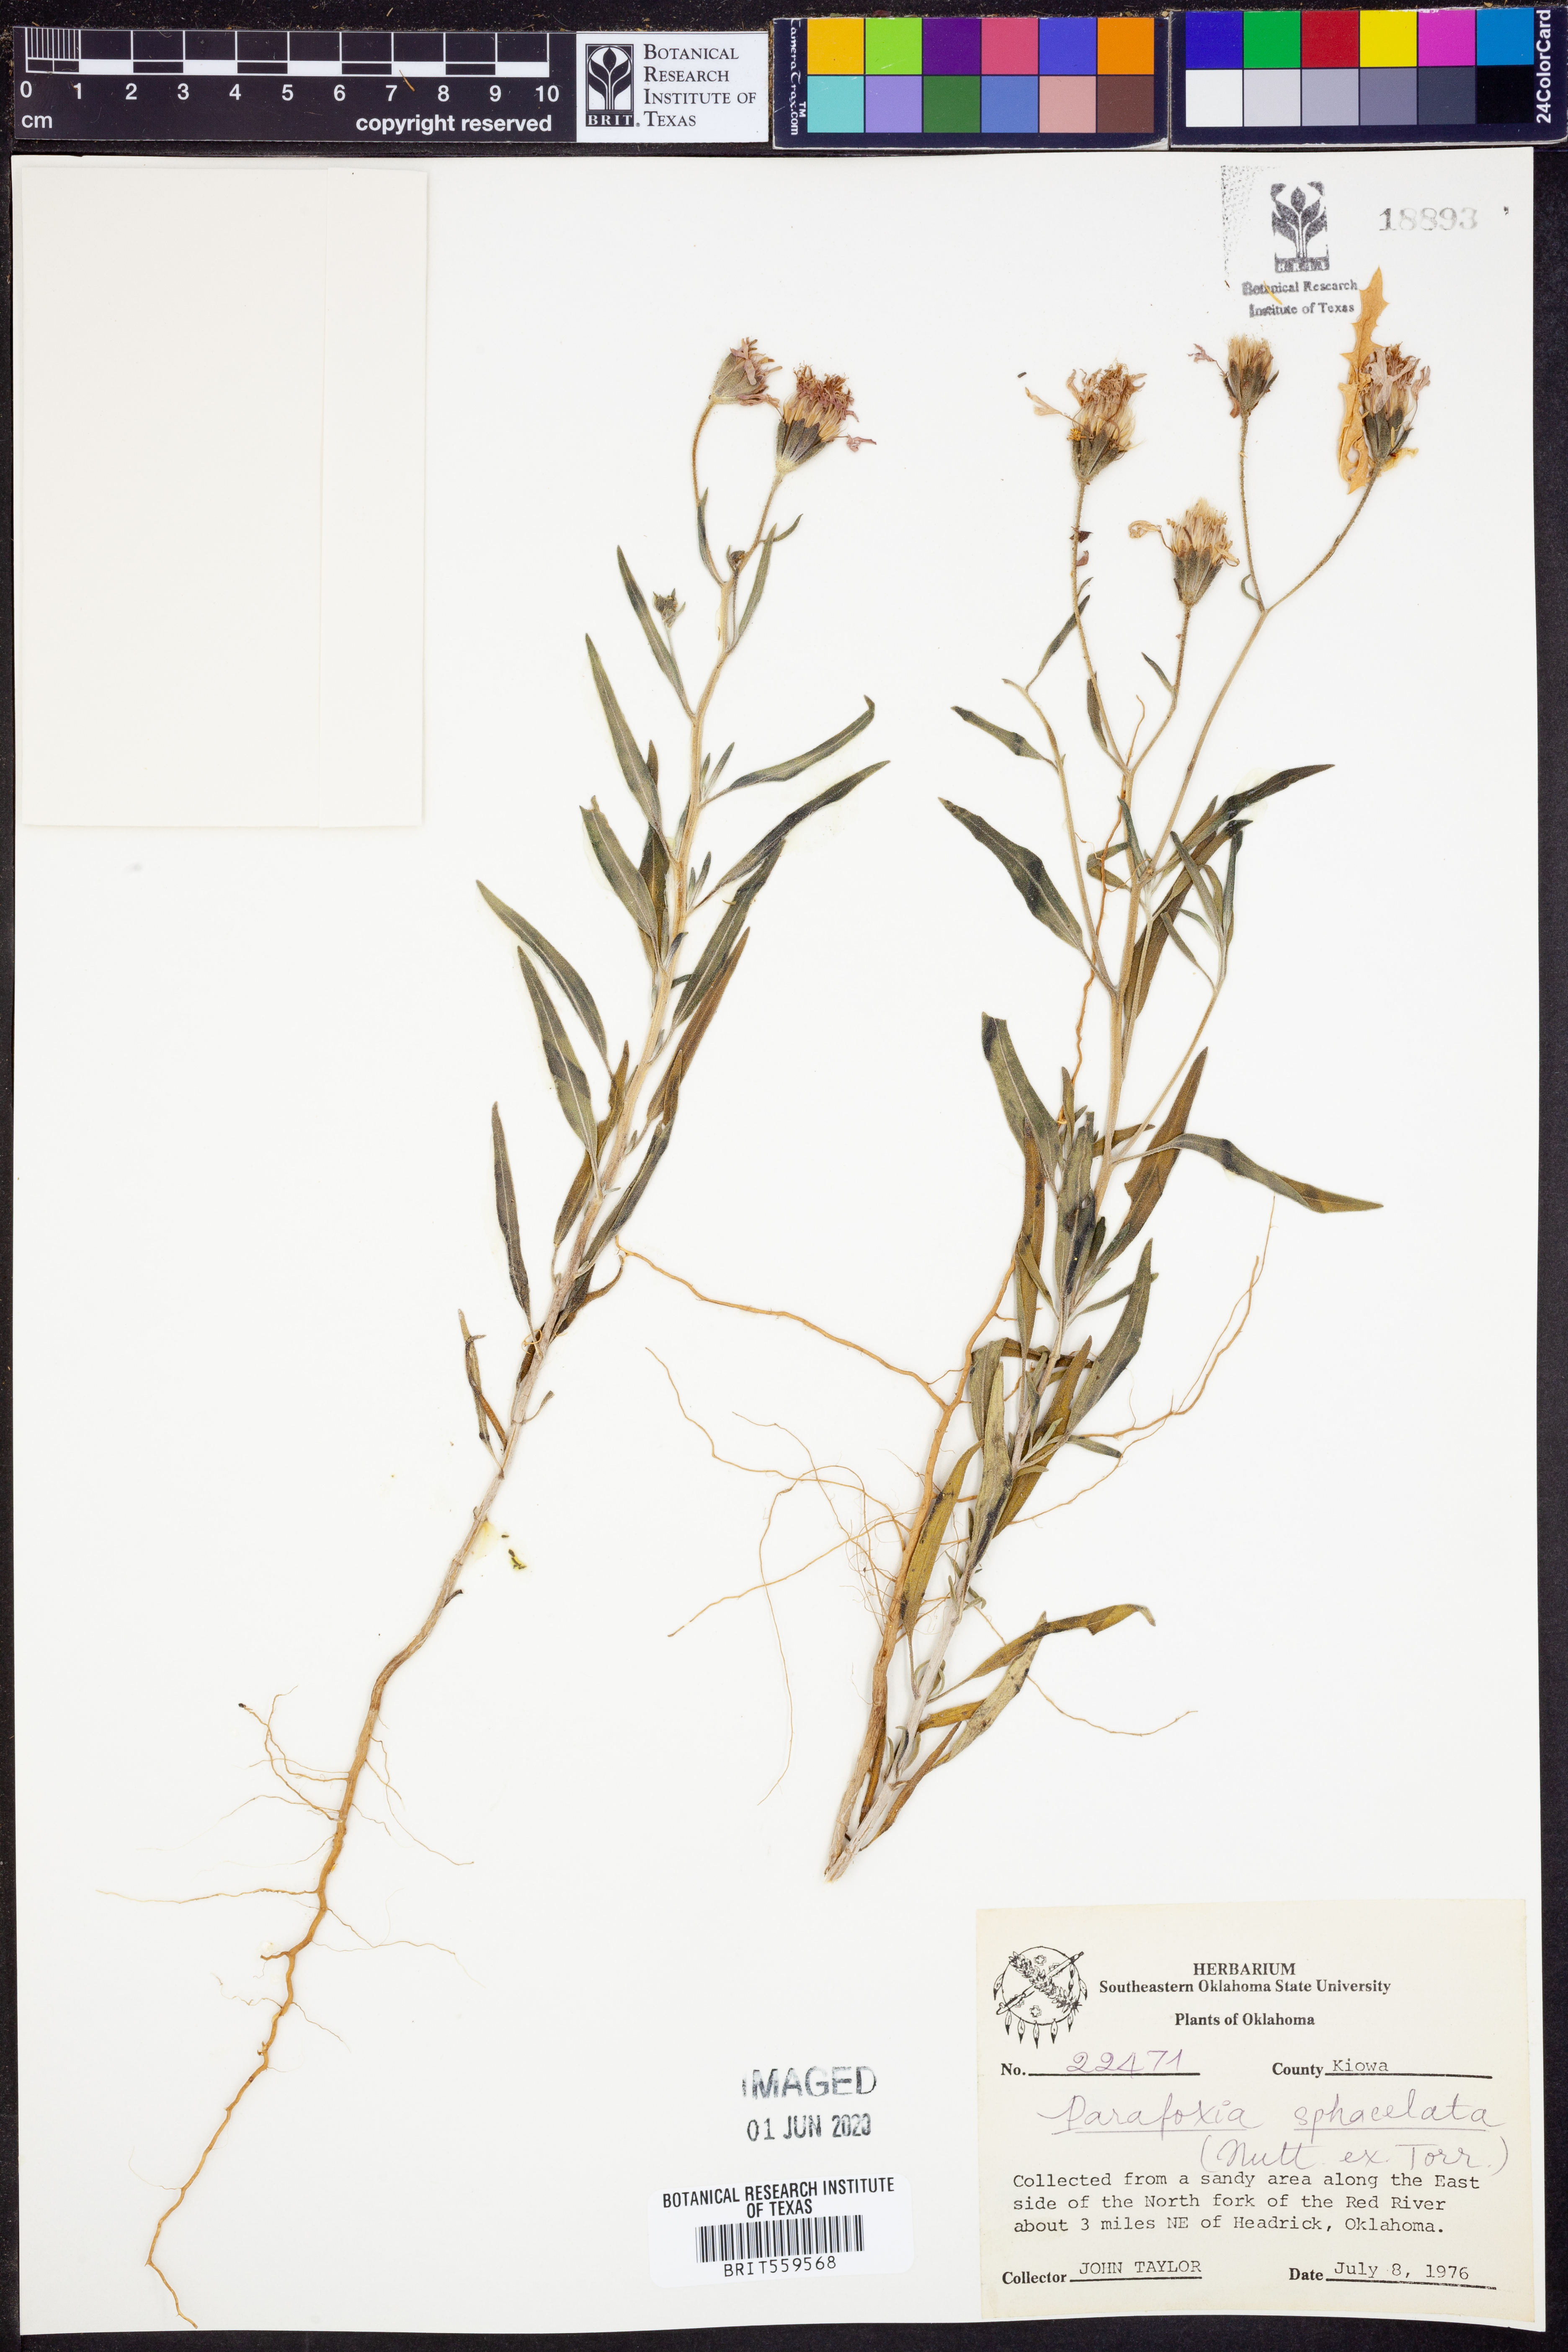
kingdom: Plantae
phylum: Tracheophyta
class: Magnoliopsida
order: Asterales
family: Asteraceae
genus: Palafoxia
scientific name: Palafoxia sphacelata
